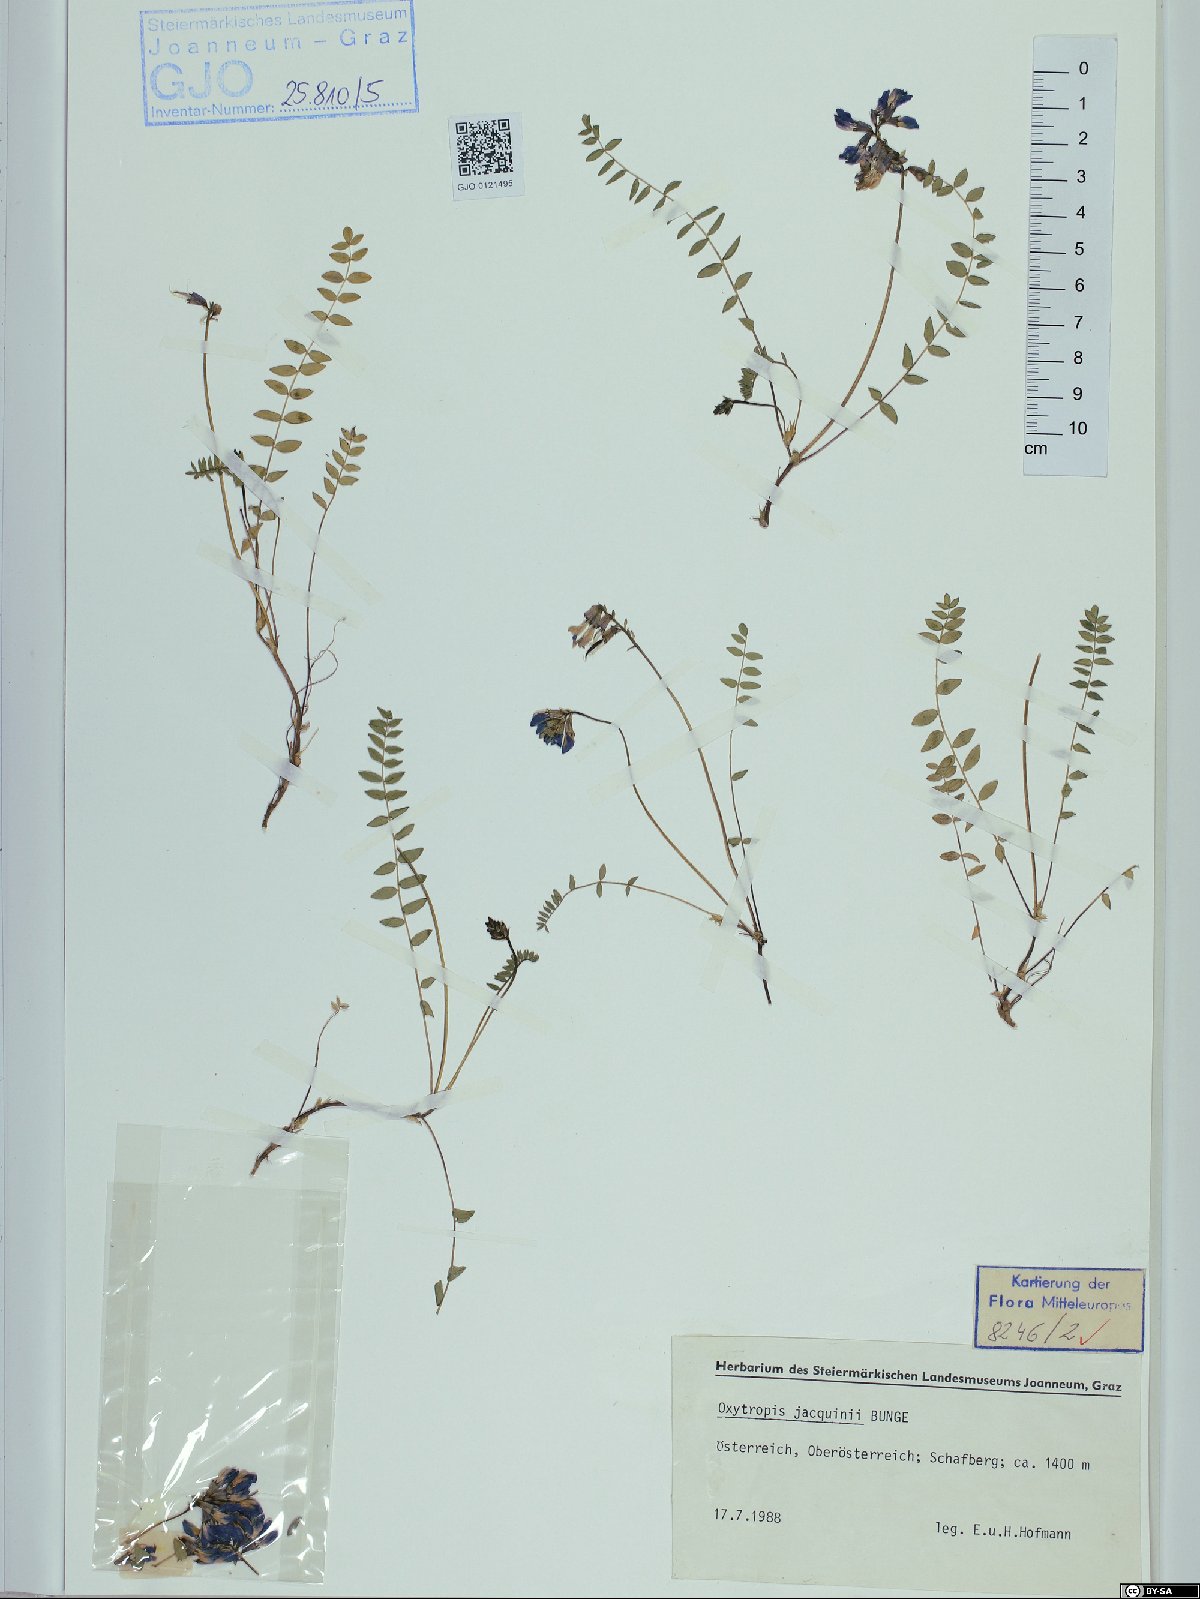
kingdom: Plantae
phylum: Tracheophyta
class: Magnoliopsida
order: Fabales
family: Fabaceae
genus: Oxytropis
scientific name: Oxytropis montana
